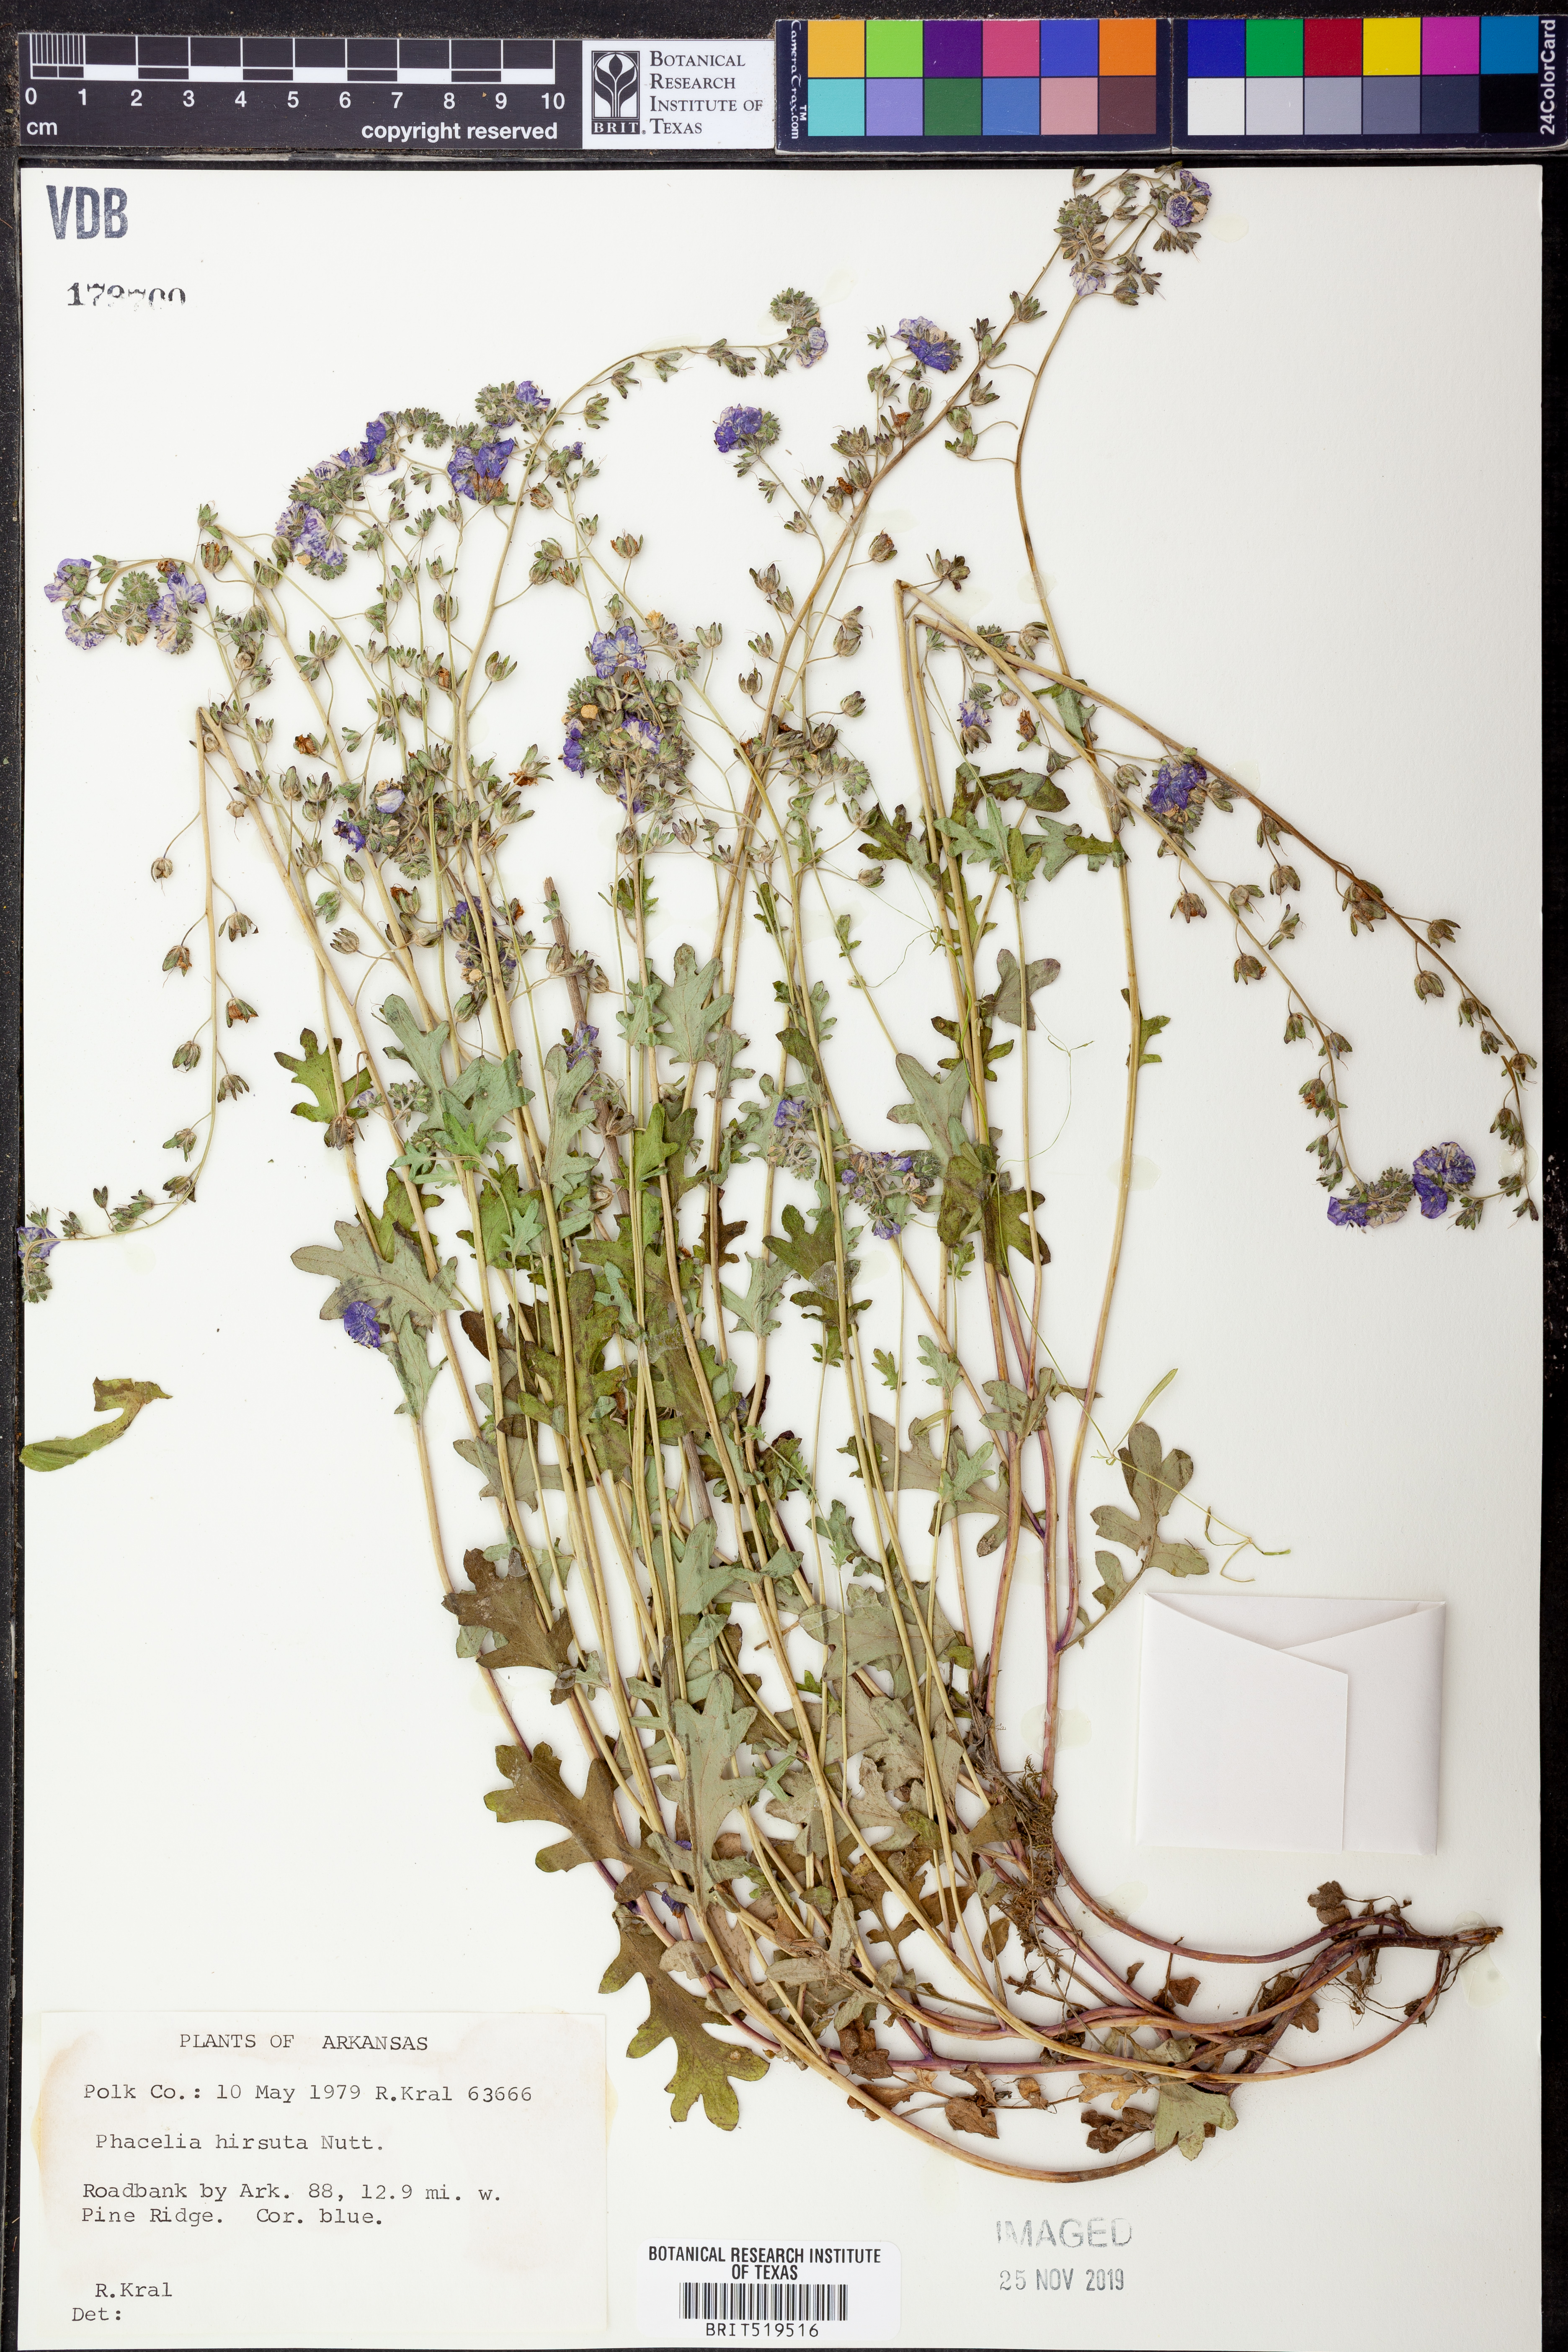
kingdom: Plantae
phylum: Tracheophyta
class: Magnoliopsida
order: Boraginales
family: Hydrophyllaceae
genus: Phacelia
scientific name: Phacelia hirsuta
